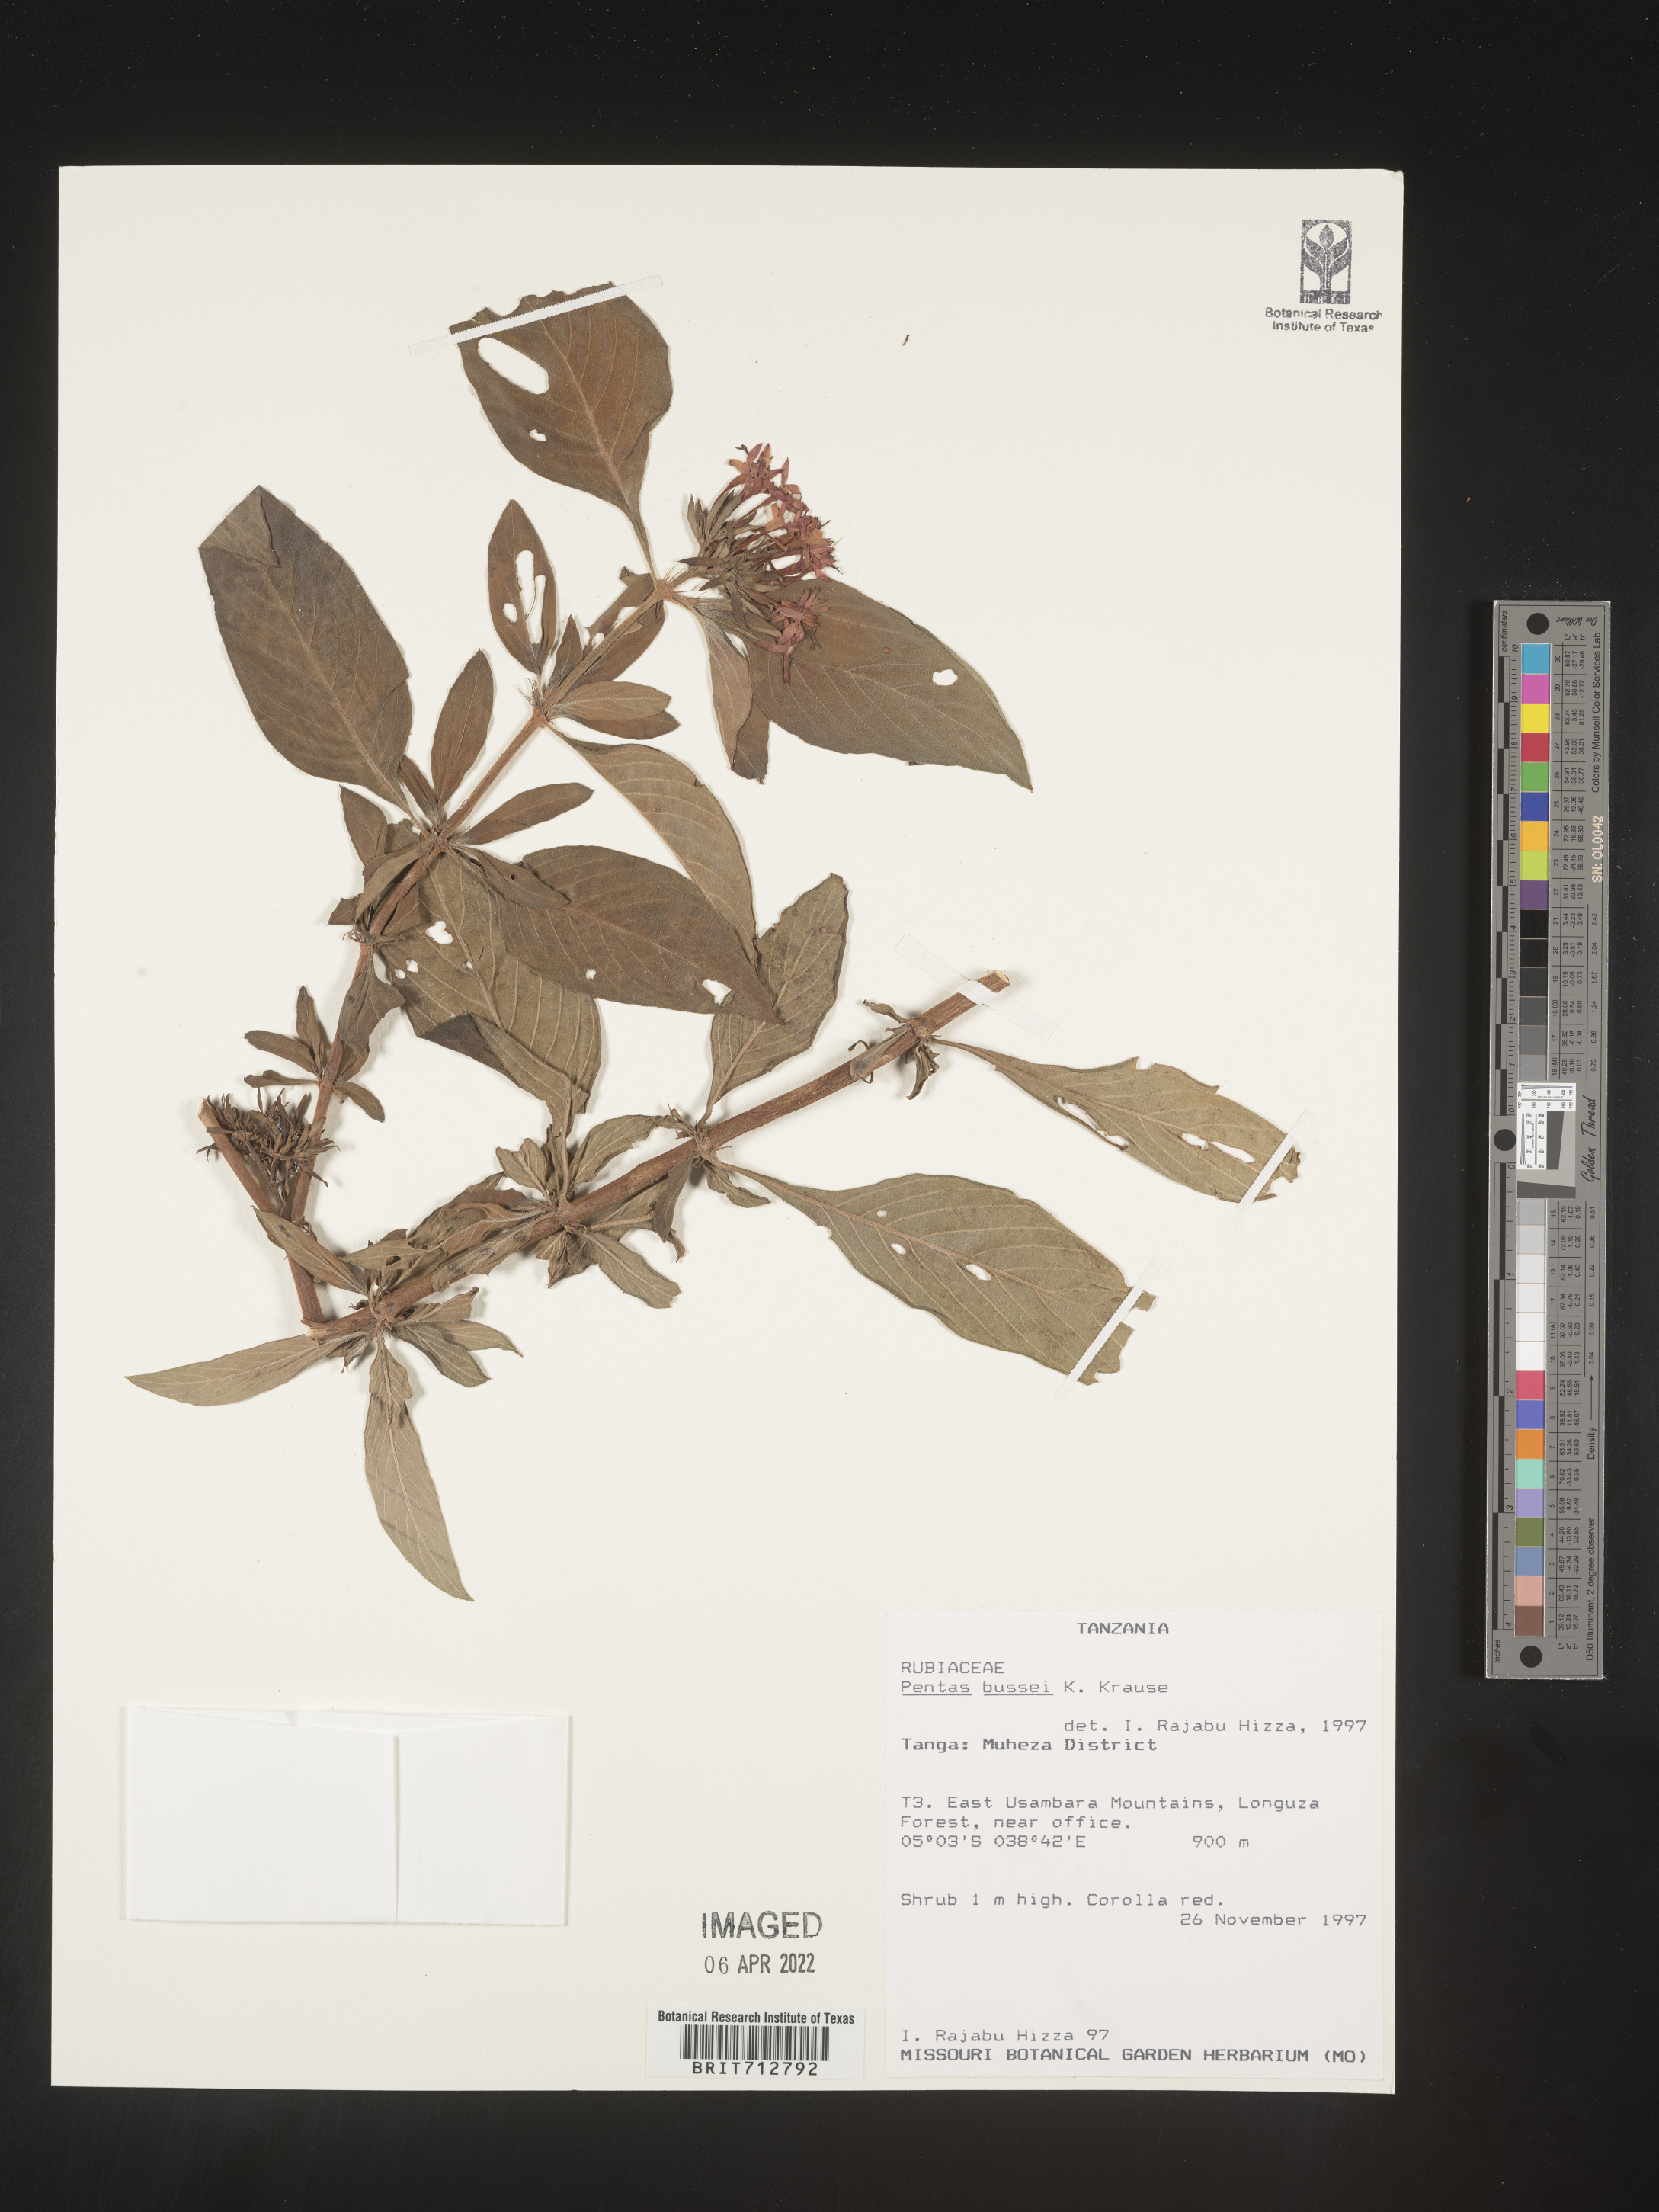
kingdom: Plantae
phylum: Tracheophyta
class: Magnoliopsida
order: Gentianales
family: Rubiaceae
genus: Pentas
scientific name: Pentas
